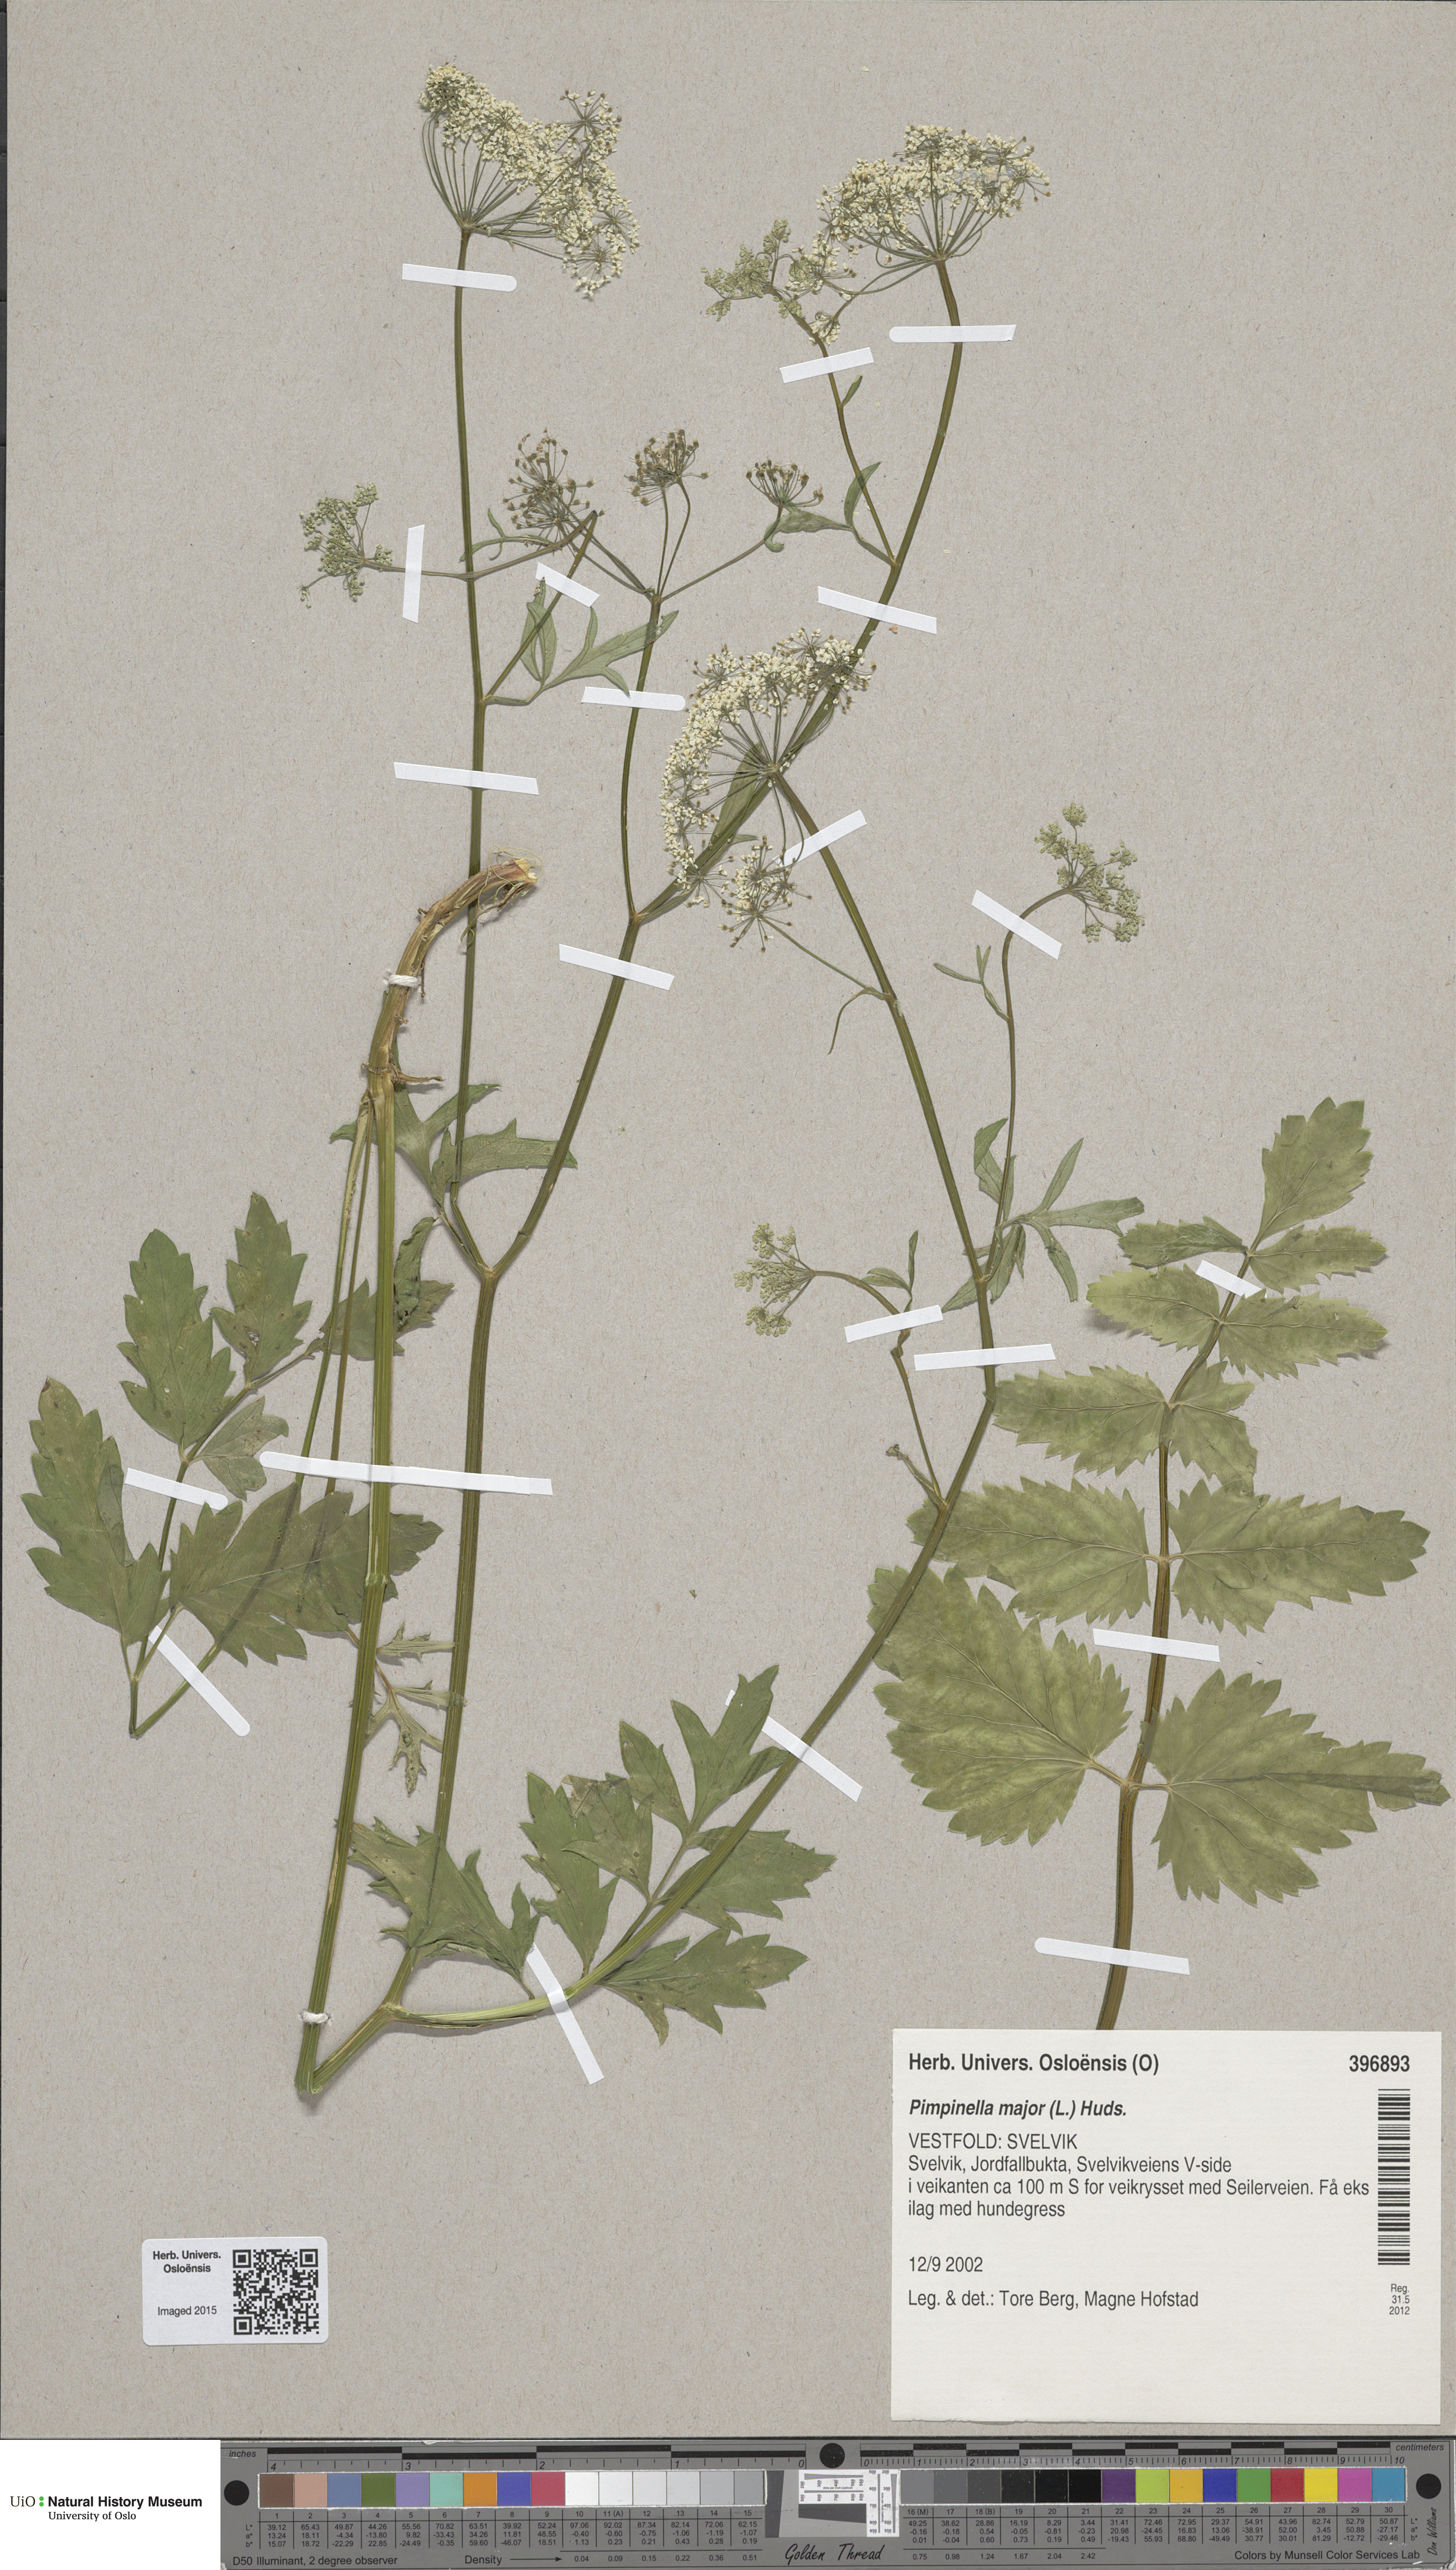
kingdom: Plantae
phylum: Tracheophyta
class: Magnoliopsida
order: Apiales
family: Apiaceae
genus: Pimpinella
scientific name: Pimpinella major
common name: Greater burnet-saxifrage
